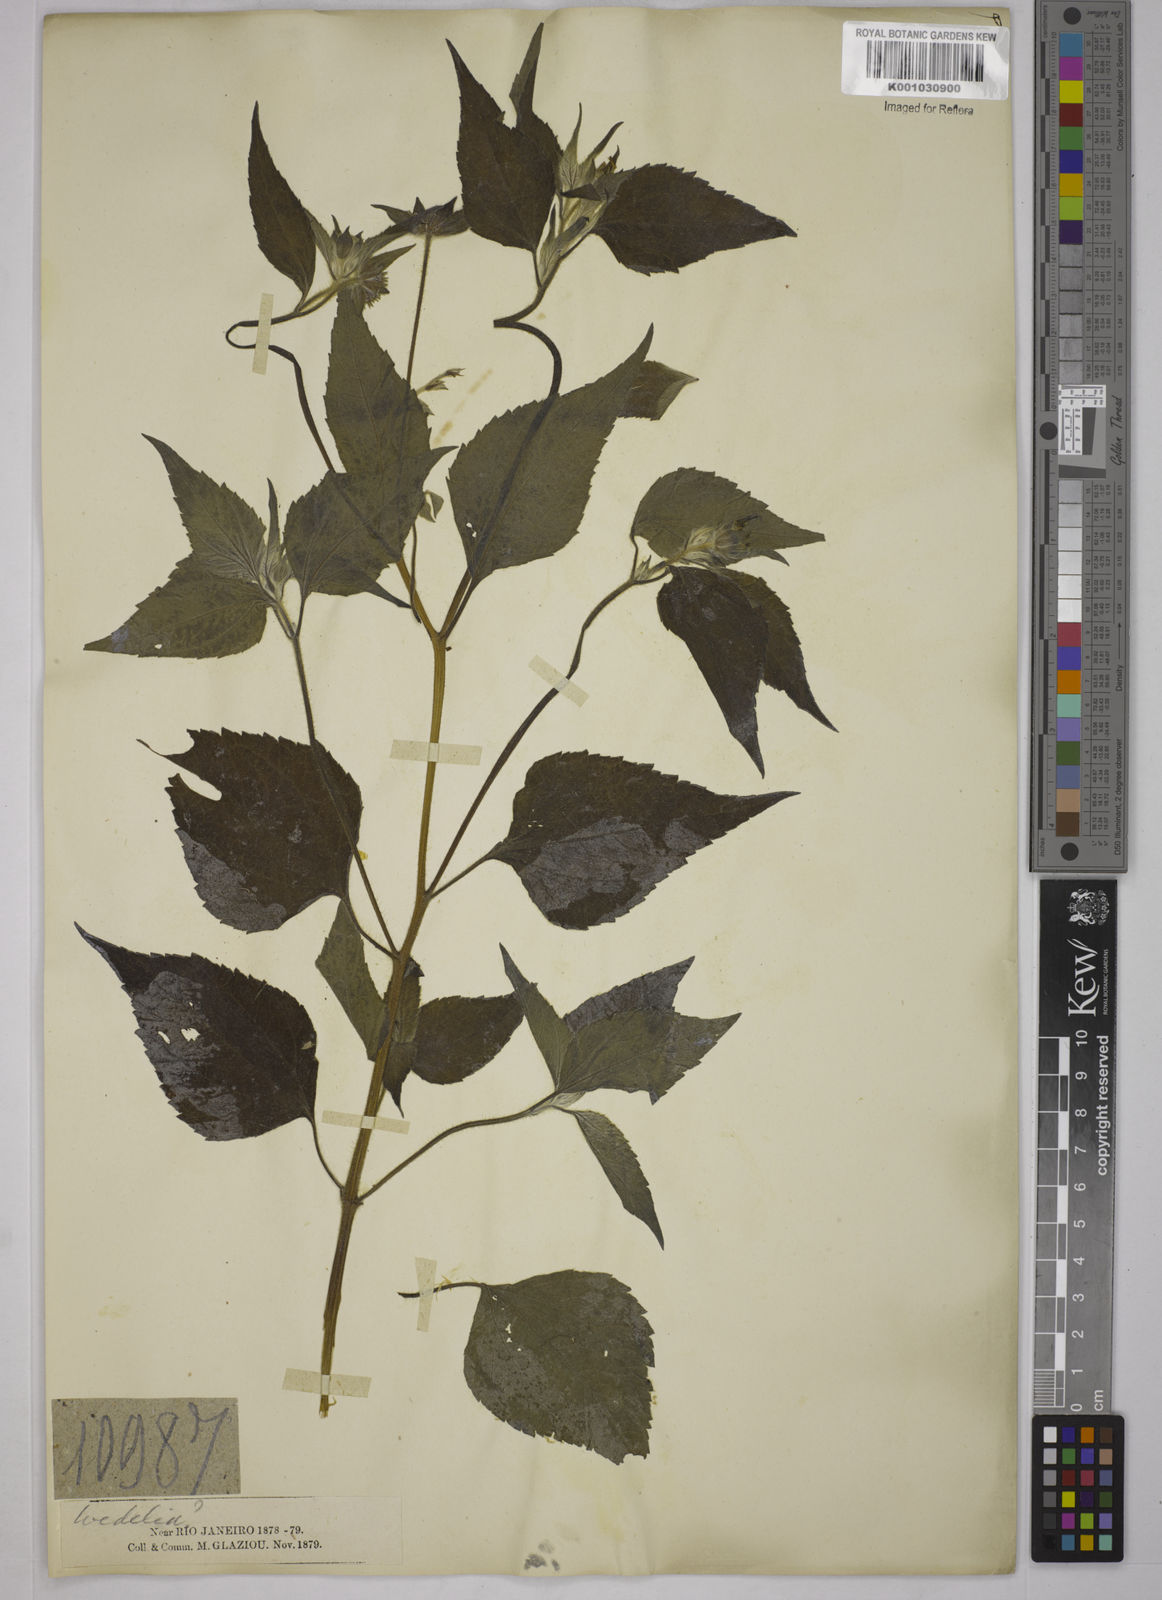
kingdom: Plantae
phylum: Tracheophyta
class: Magnoliopsida
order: Asterales
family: Asteraceae
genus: Wedelia
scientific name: Wedelia
